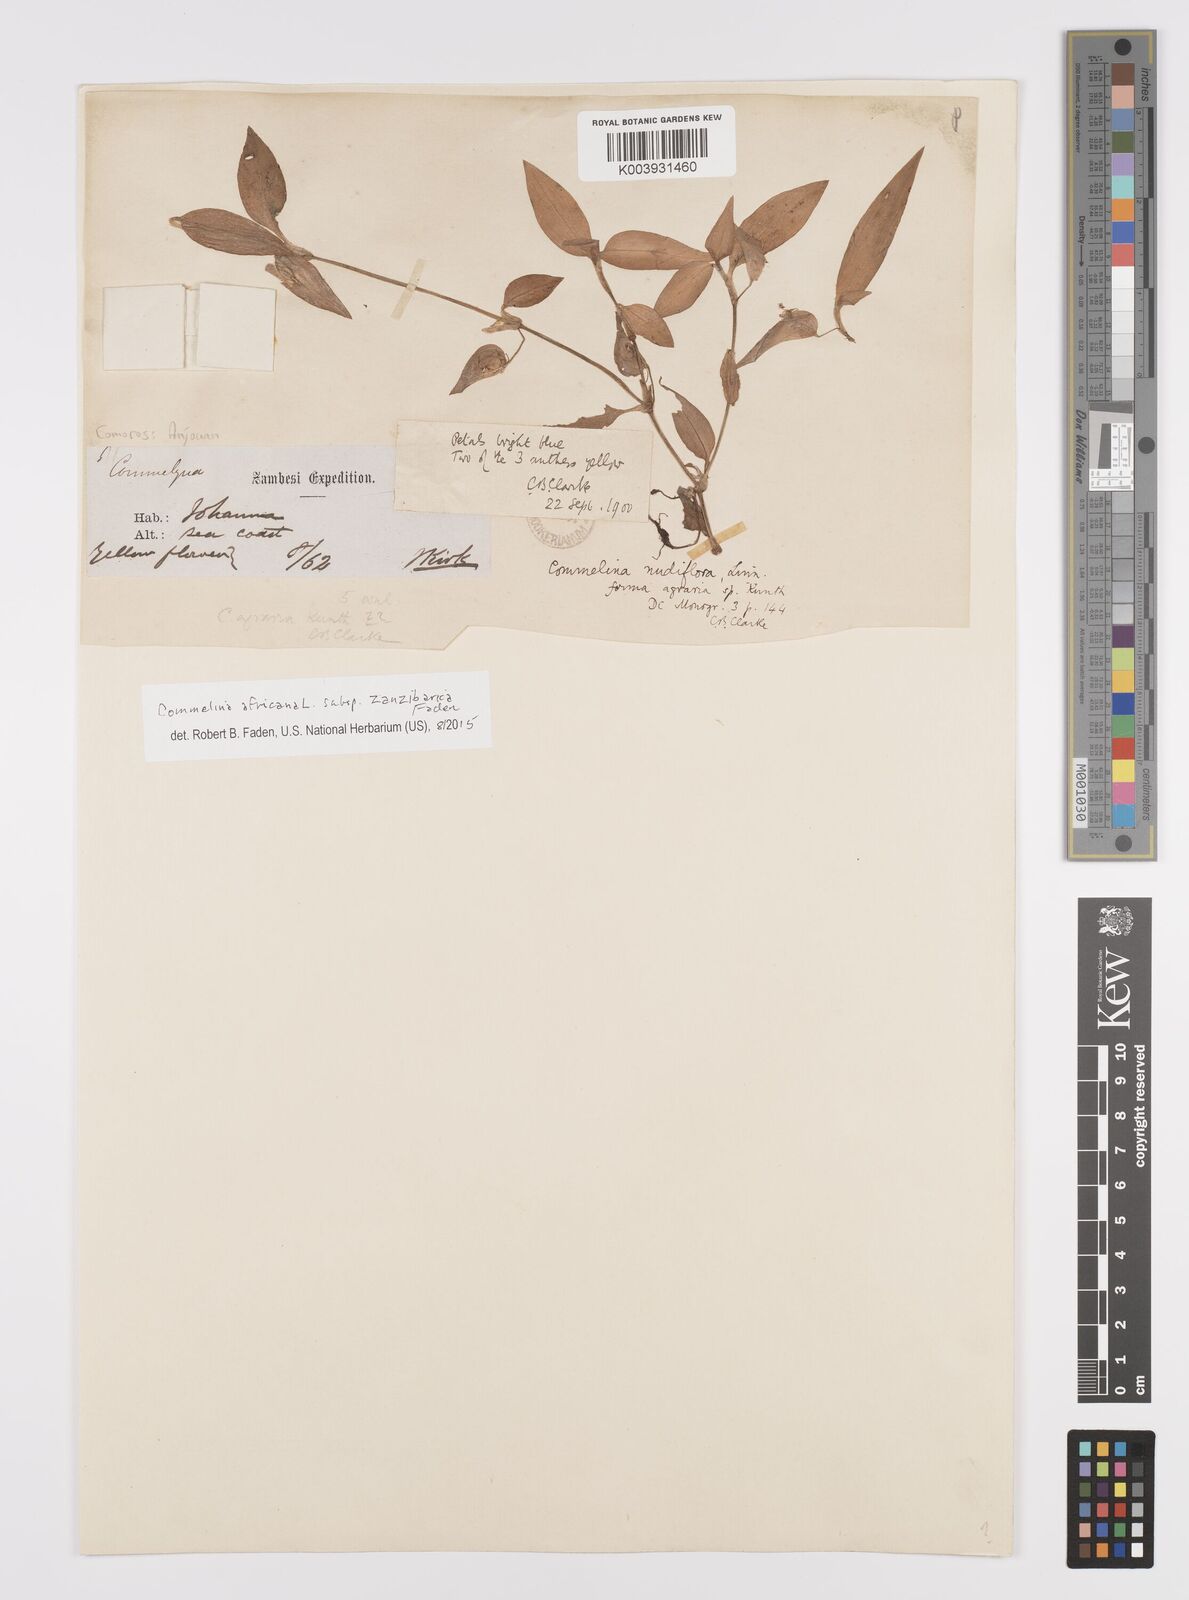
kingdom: Plantae
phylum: Tracheophyta
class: Liliopsida
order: Commelinales
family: Commelinaceae
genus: Commelina
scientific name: Commelina africana
